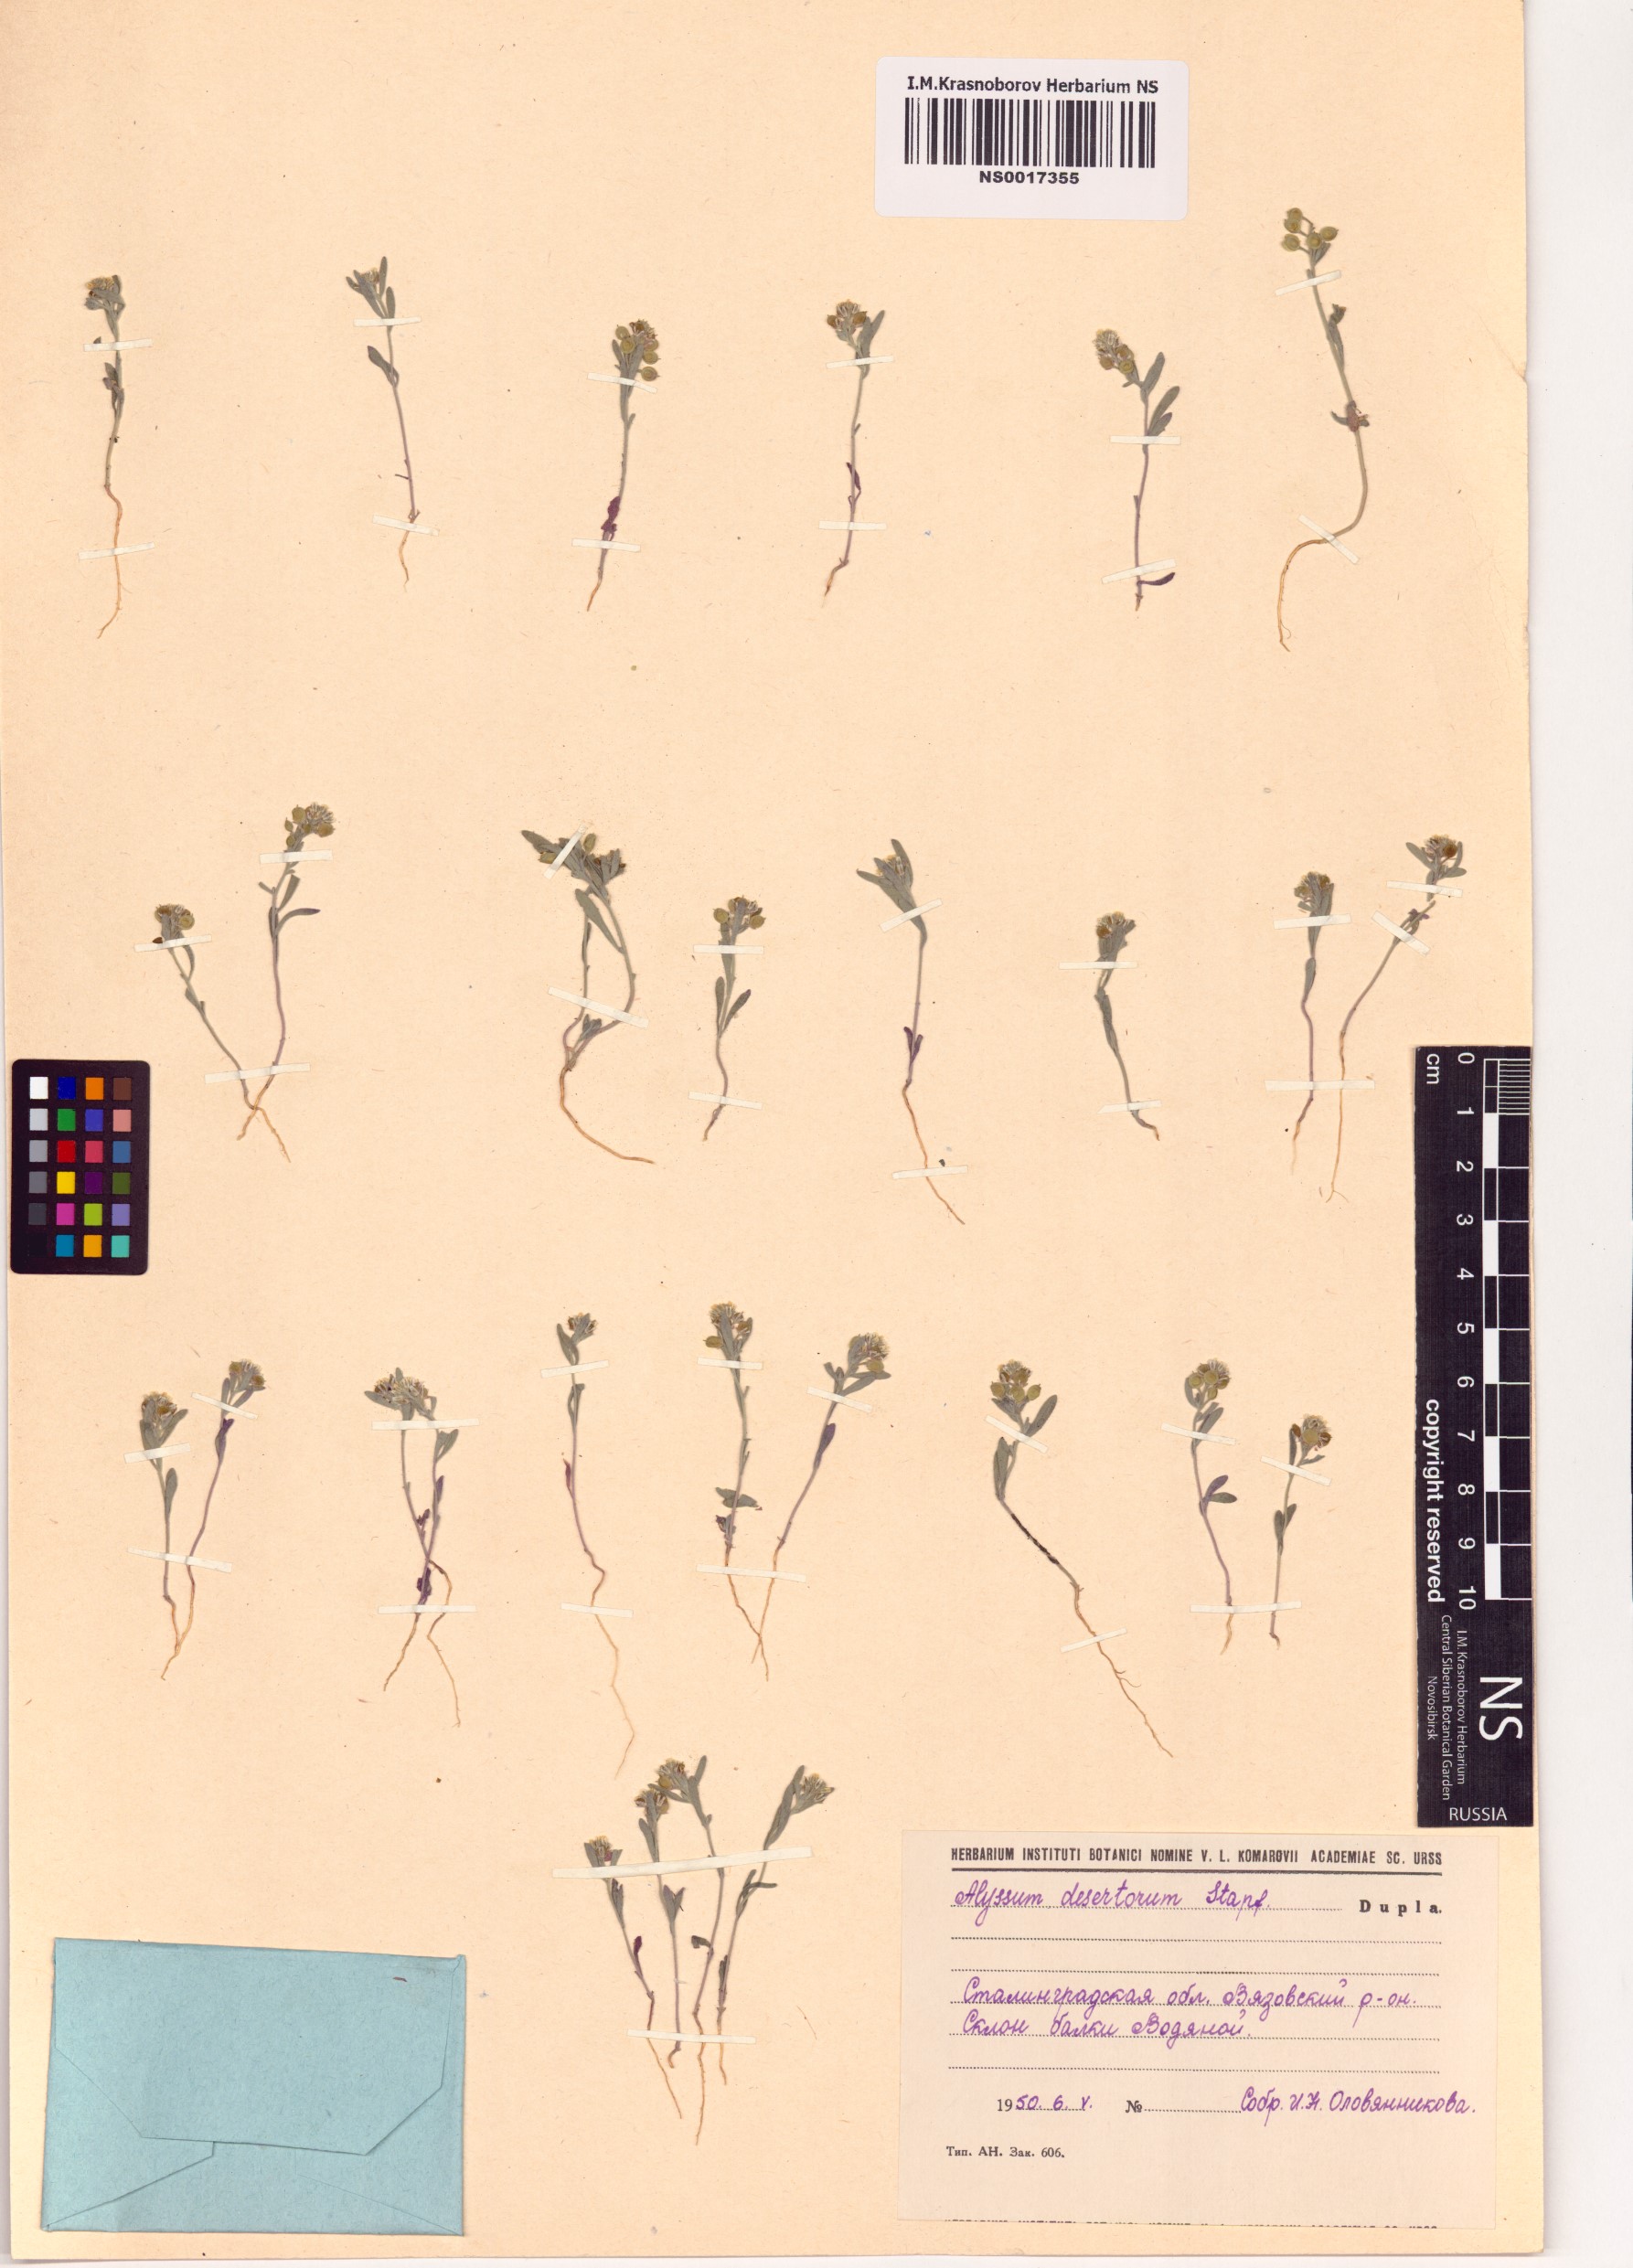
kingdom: Plantae
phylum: Tracheophyta
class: Magnoliopsida
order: Brassicales
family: Brassicaceae
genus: Alyssum
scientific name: Alyssum turkestanicum
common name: Desert alyssum
